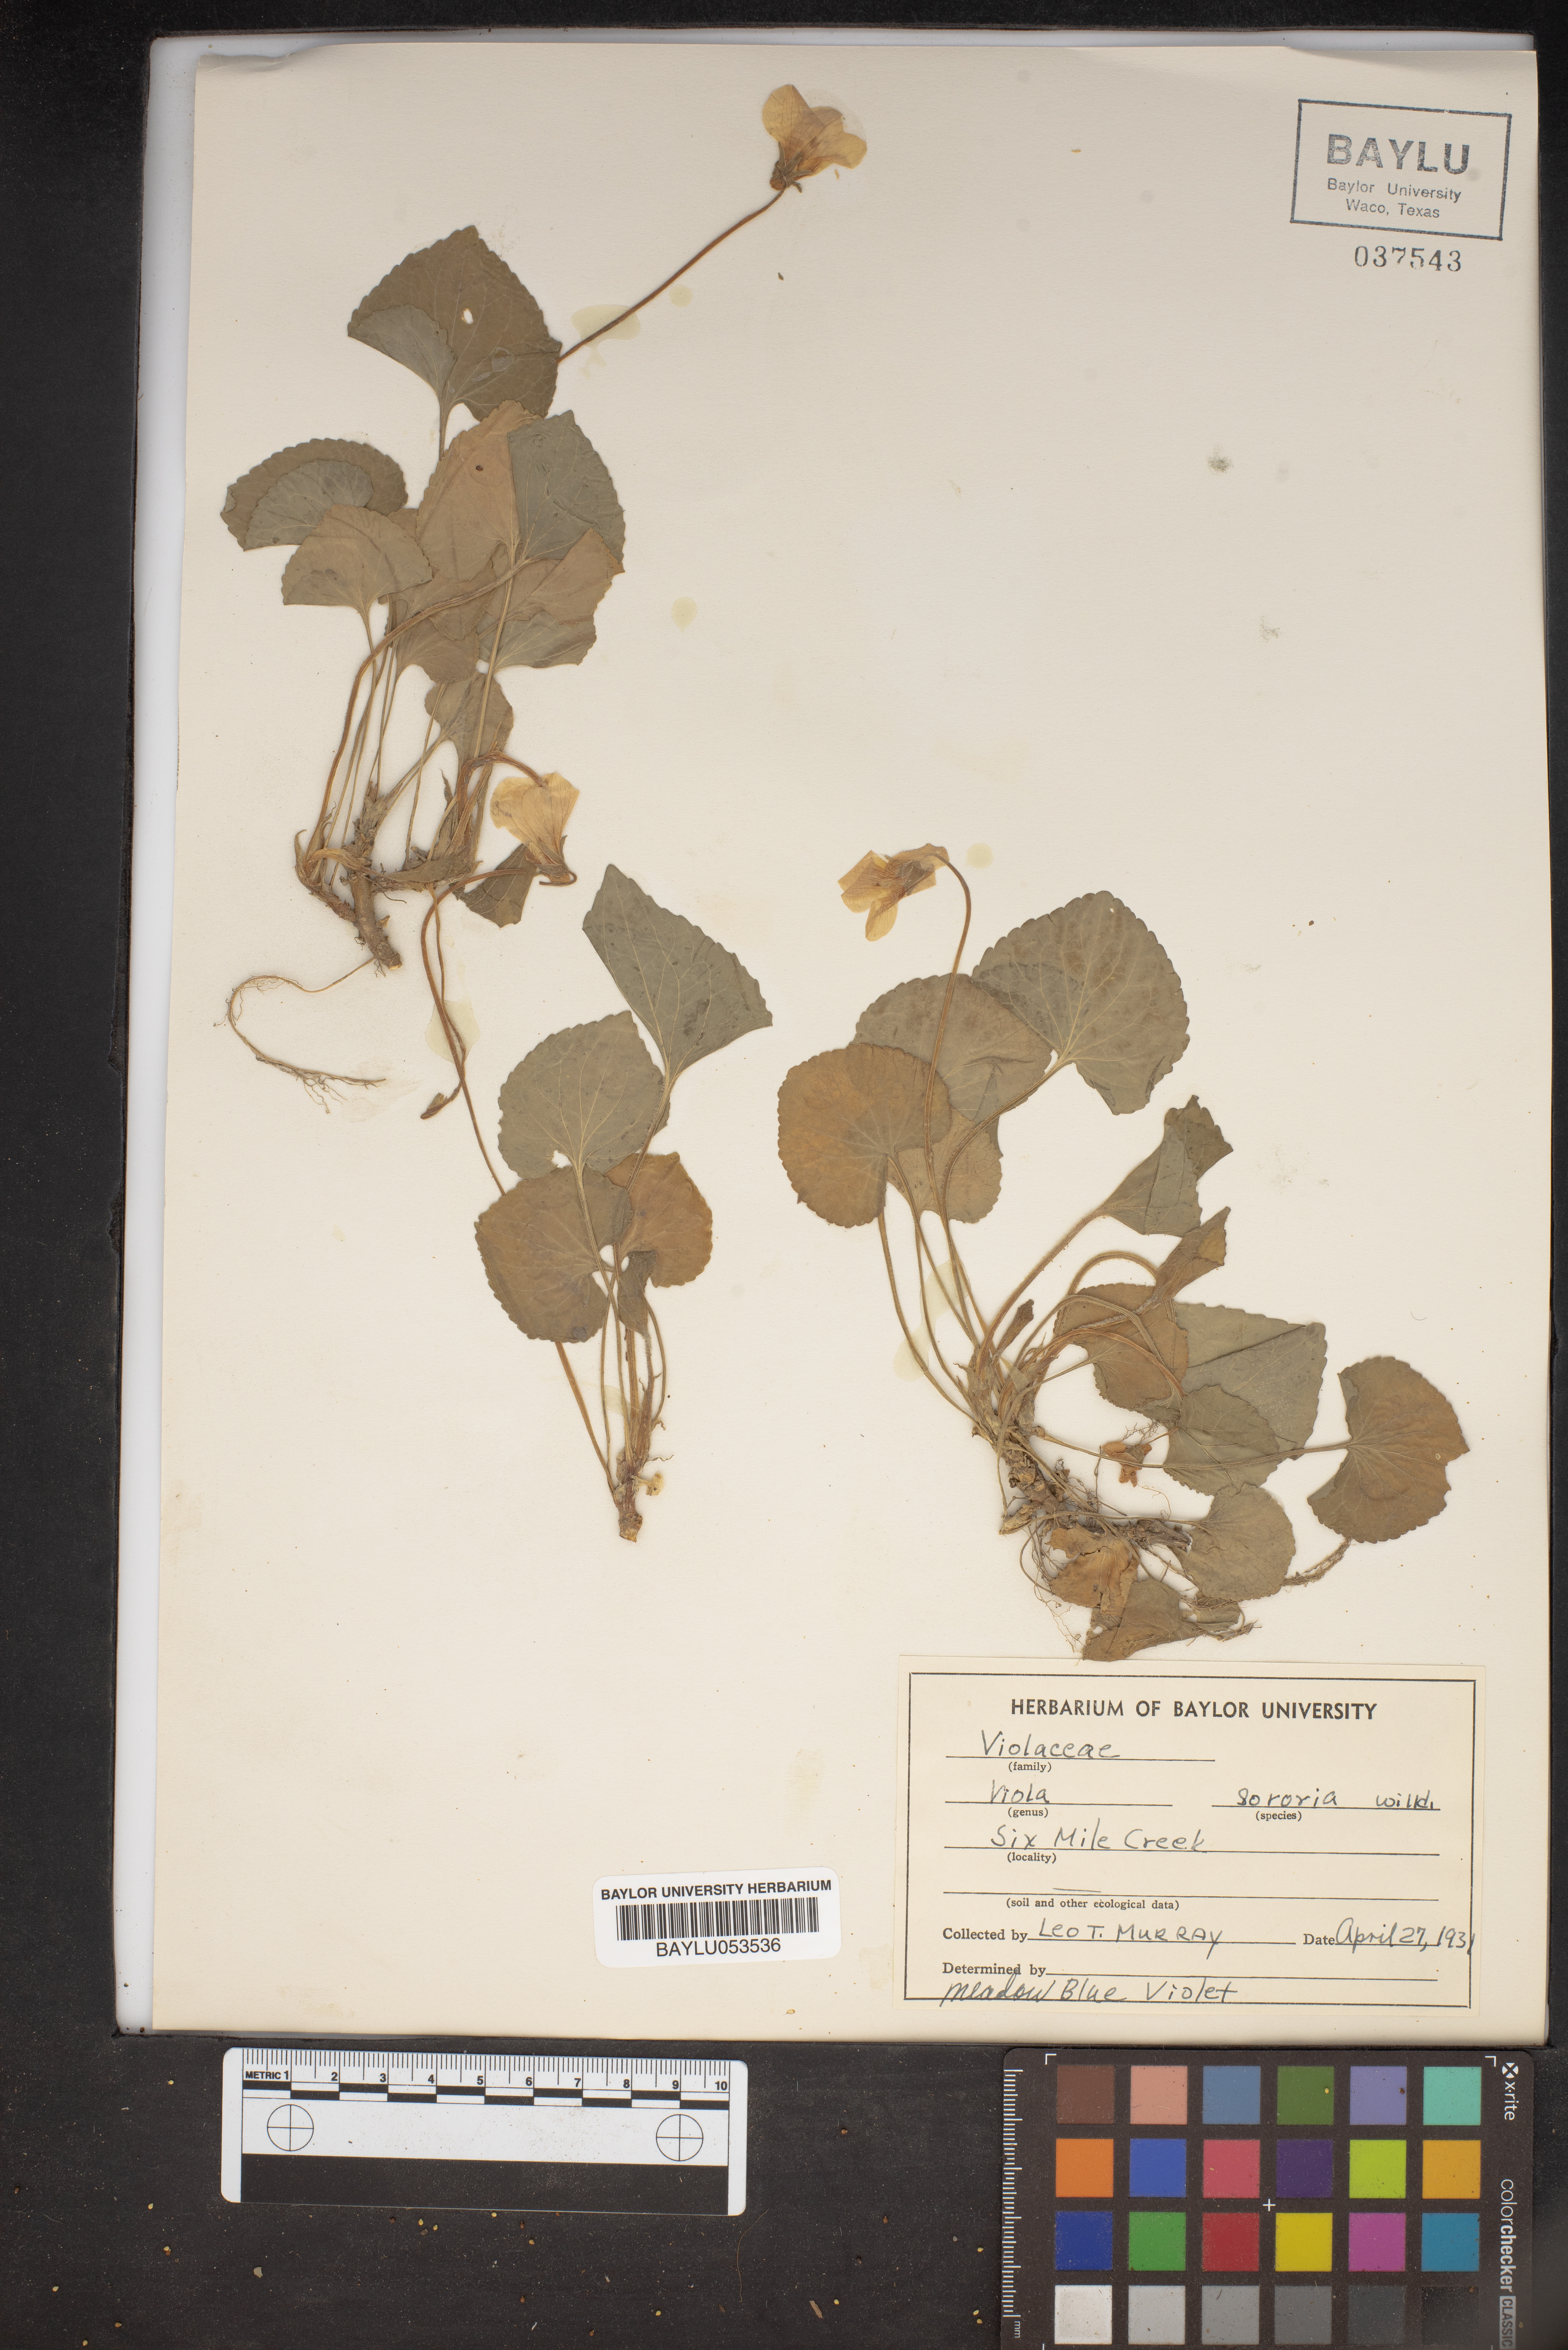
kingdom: Plantae
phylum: Tracheophyta
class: Magnoliopsida
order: Malpighiales
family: Violaceae
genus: Viola
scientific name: Viola sororia
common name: Dooryard violet
